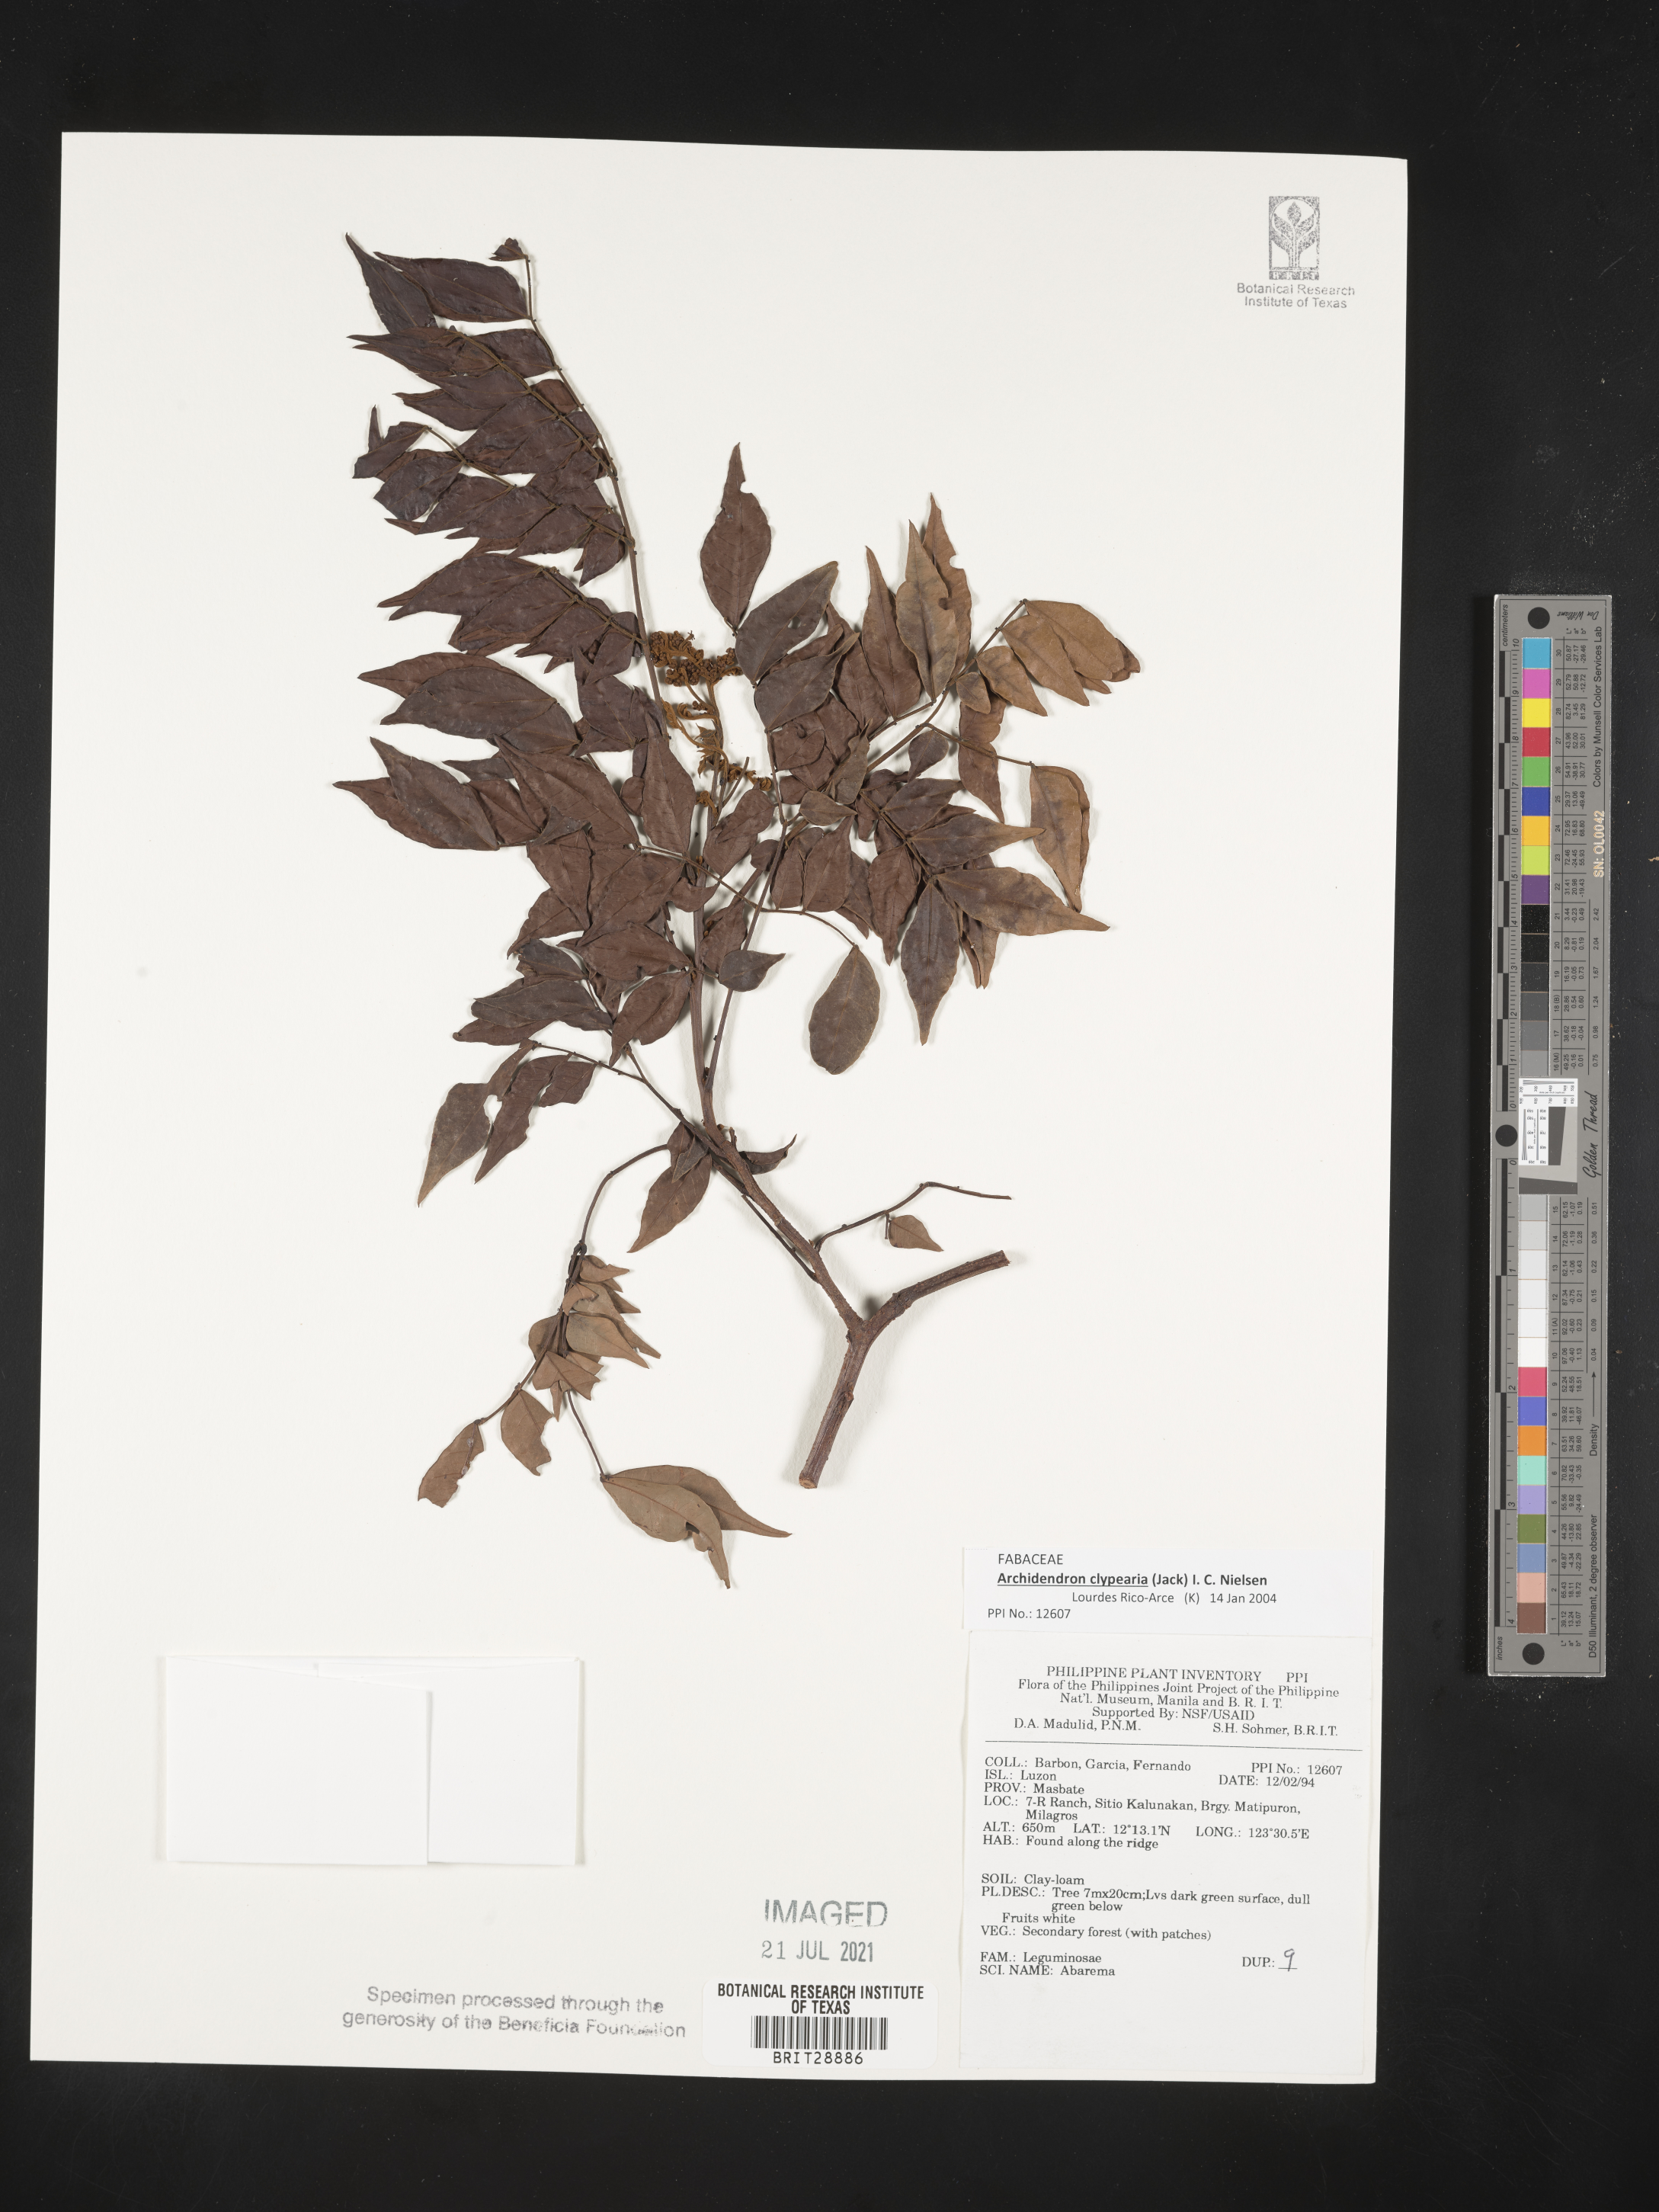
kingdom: Plantae
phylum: Tracheophyta
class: Magnoliopsida
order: Fabales
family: Fabaceae
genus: Abarema
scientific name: Abarema
